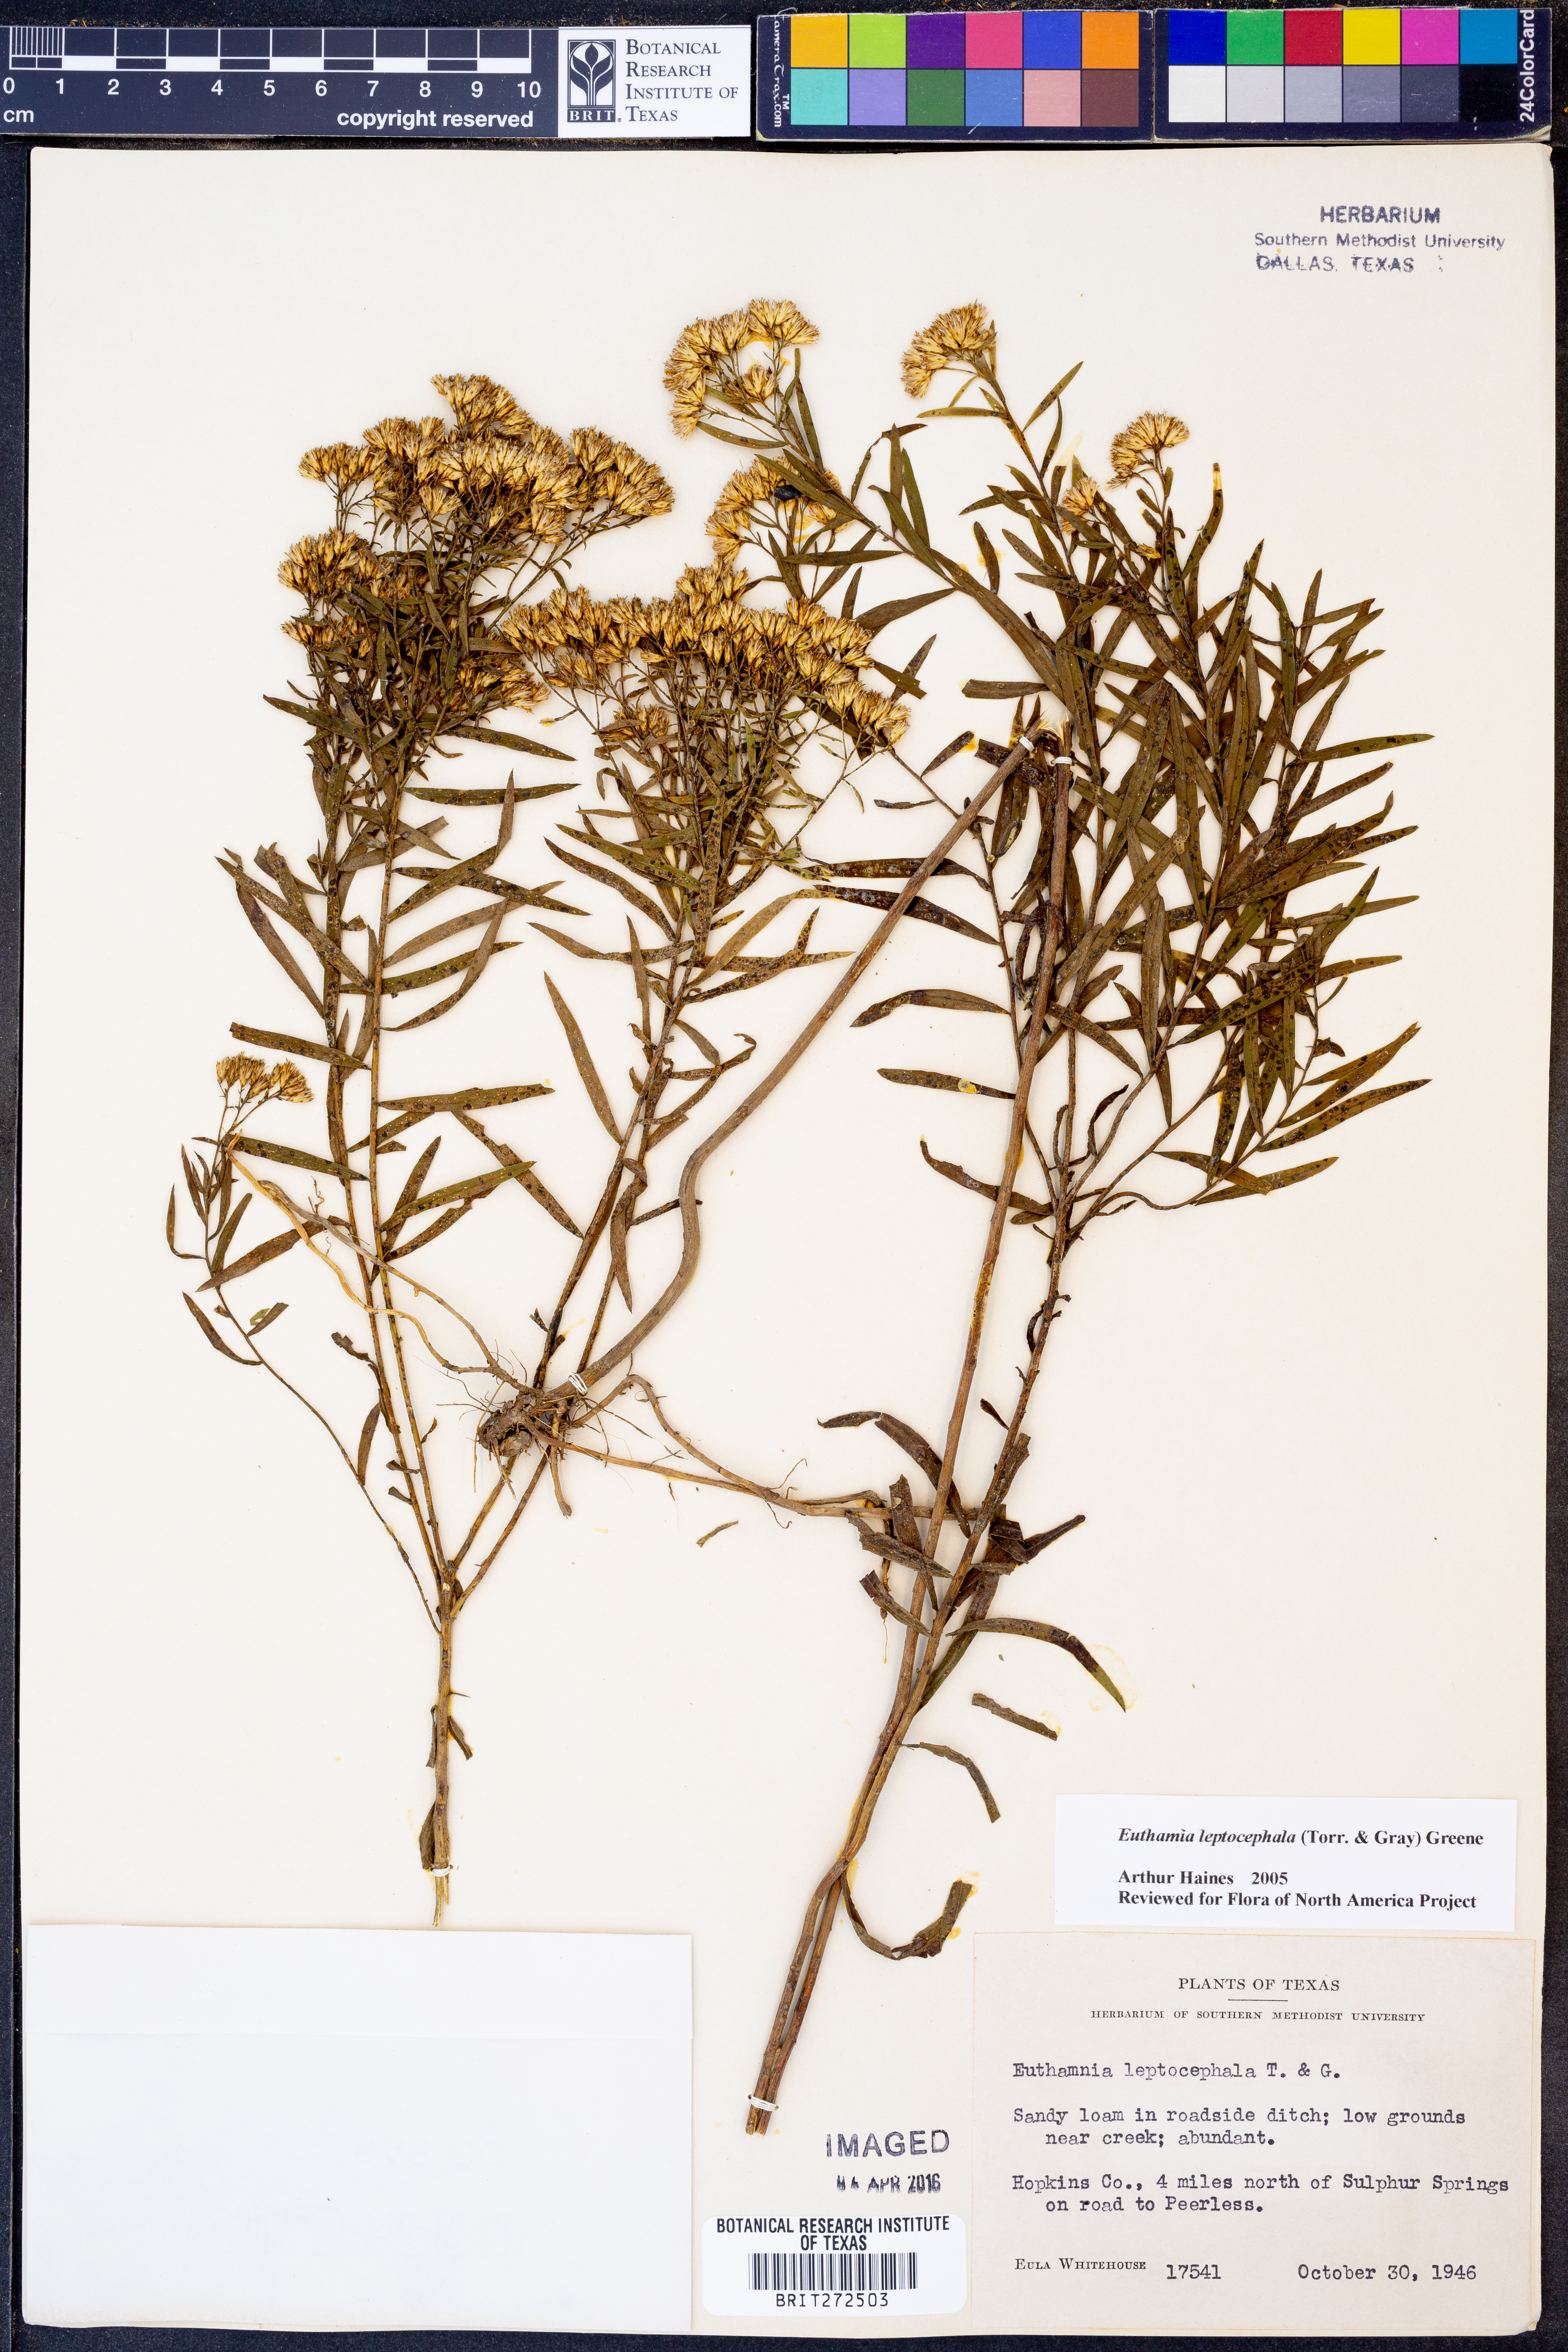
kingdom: Plantae
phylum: Tracheophyta
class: Magnoliopsida
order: Asterales
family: Asteraceae
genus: Euthamia
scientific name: Euthamia leptocephala
